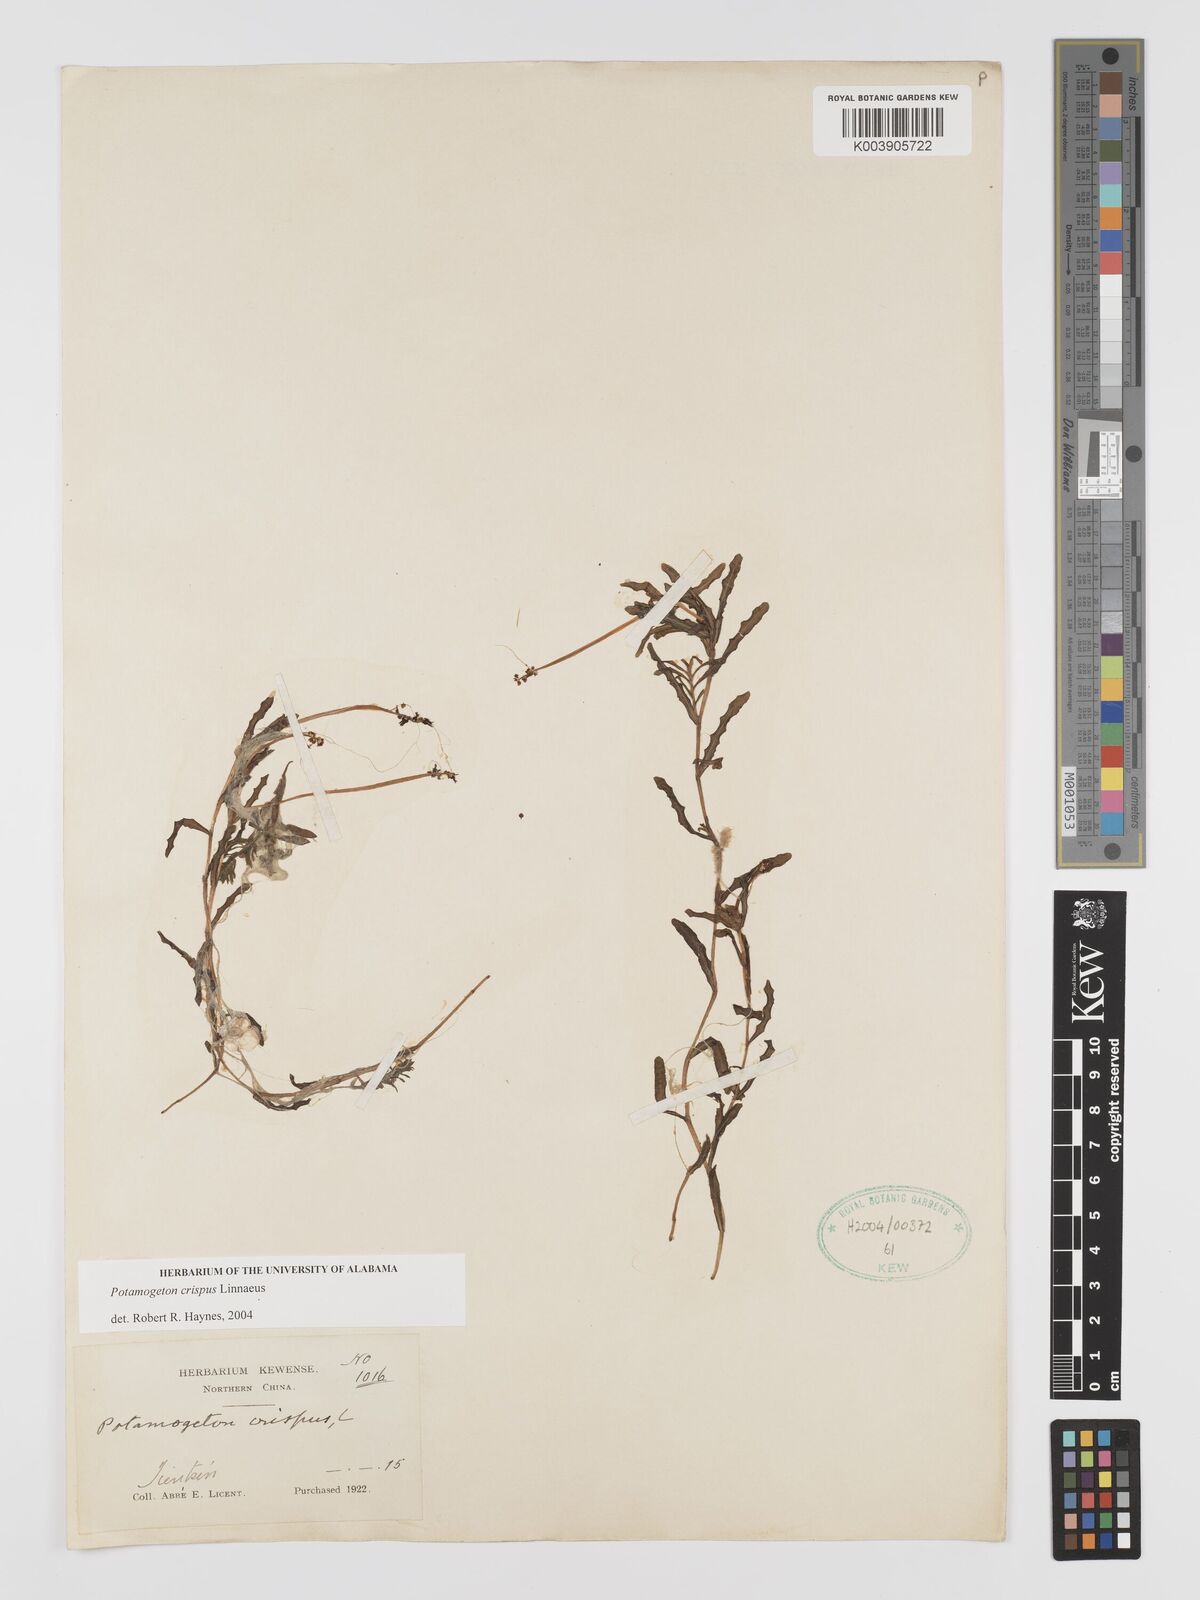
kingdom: Plantae
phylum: Tracheophyta
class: Liliopsida
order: Alismatales
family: Potamogetonaceae
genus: Potamogeton
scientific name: Potamogeton crispus
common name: Curled pondweed
